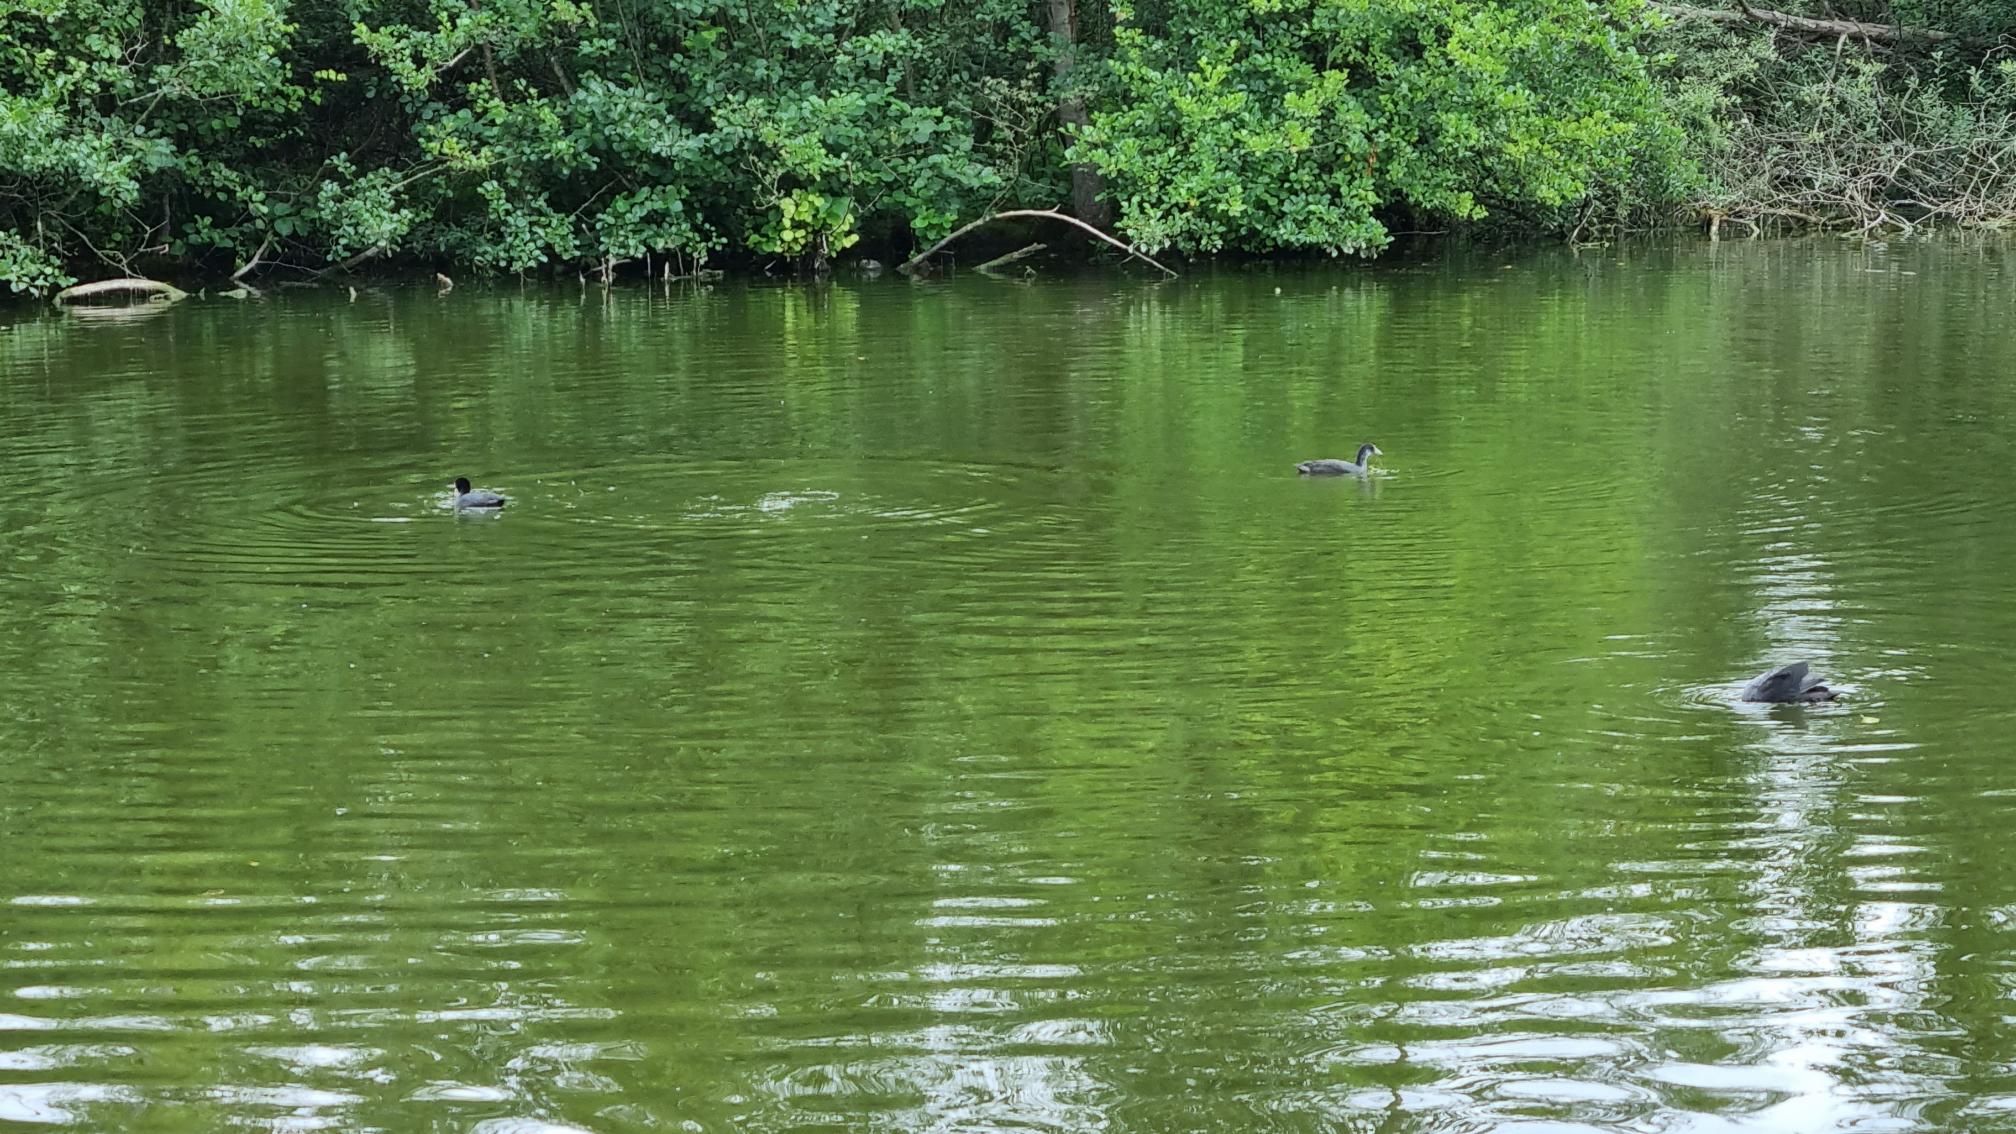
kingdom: Animalia
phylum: Chordata
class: Aves
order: Gruiformes
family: Rallidae
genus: Fulica
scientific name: Fulica atra
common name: Blishøne
